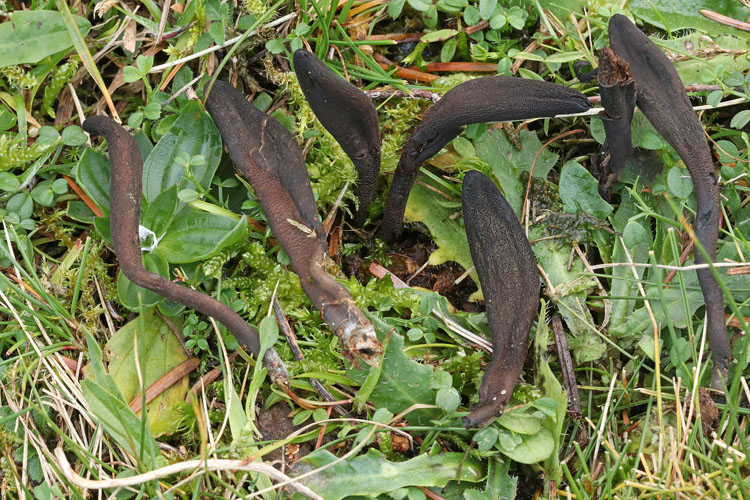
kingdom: Fungi
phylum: Ascomycota
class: Geoglossomycetes
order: Geoglossales
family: Geoglossaceae
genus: Hemileucoglossum
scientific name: Hemileucoglossum elongatum
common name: småsporet jordtunge
